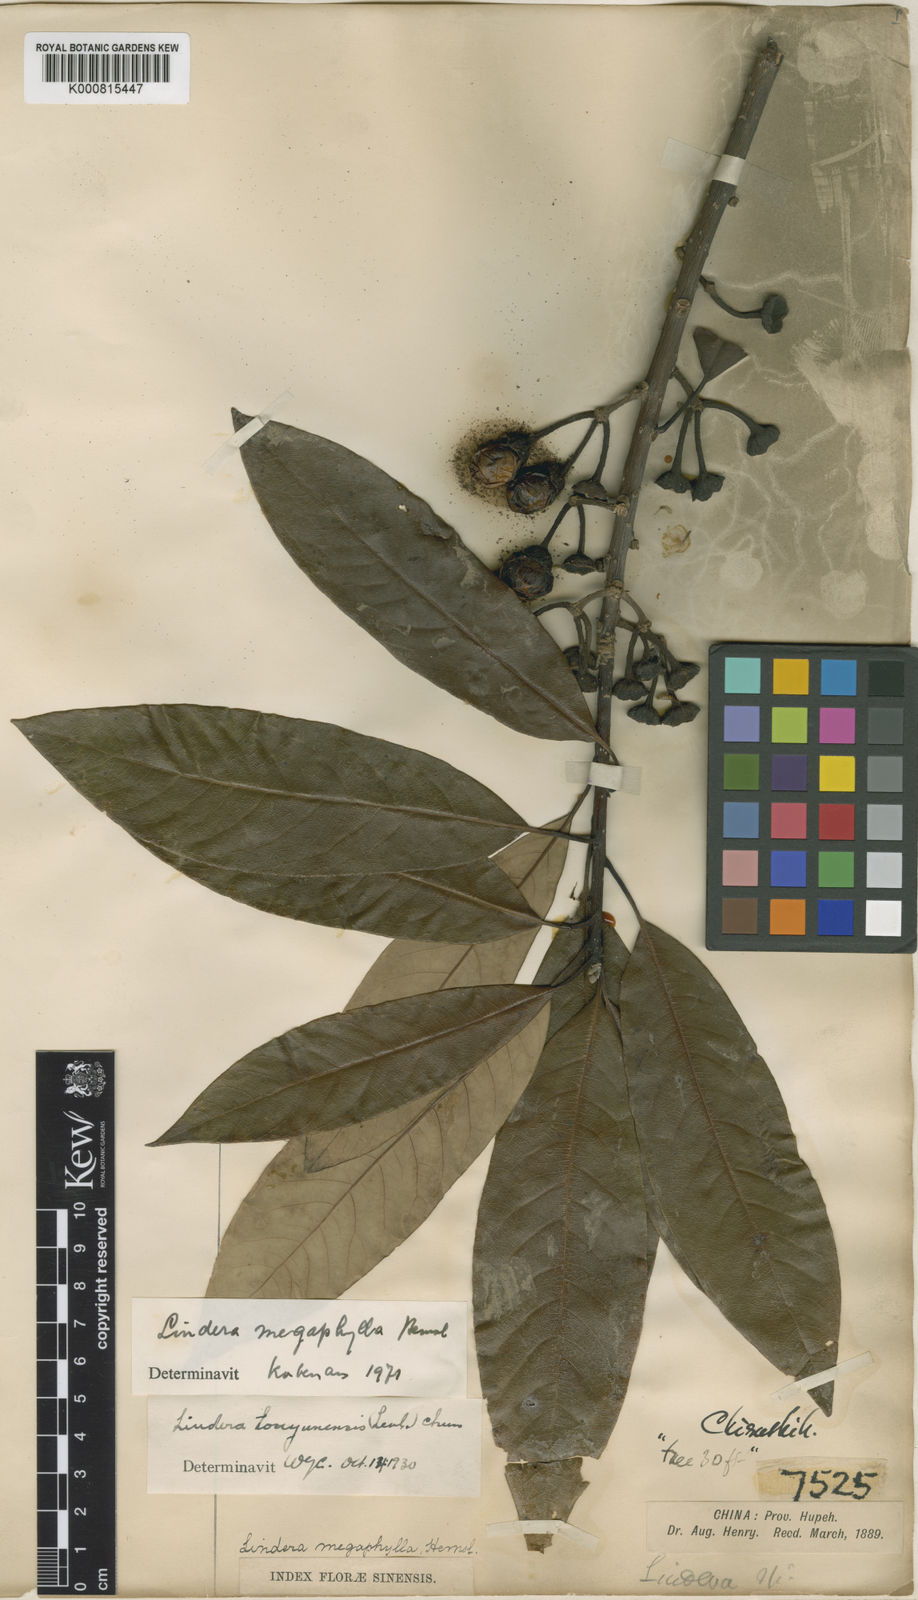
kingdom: Plantae
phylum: Tracheophyta
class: Magnoliopsida
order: Laurales
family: Lauraceae
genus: Lindera
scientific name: Lindera megaphylla
